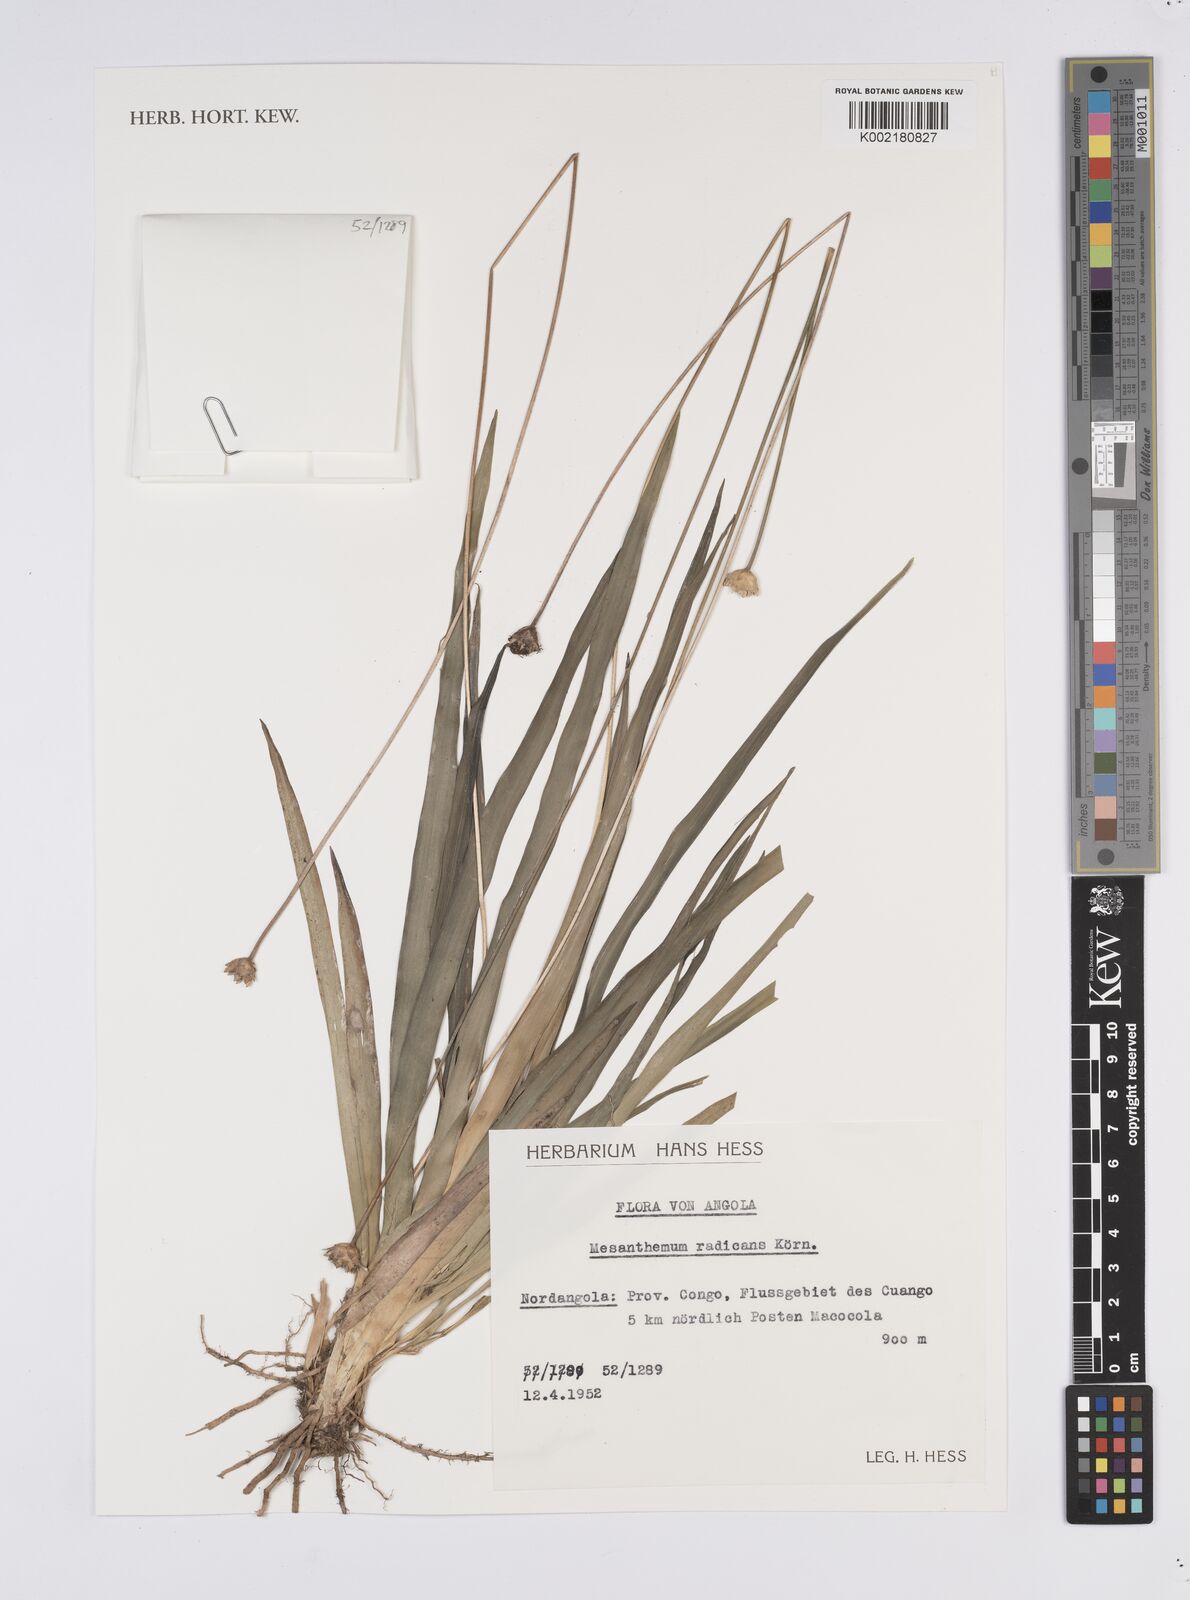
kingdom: Plantae
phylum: Tracheophyta
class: Liliopsida
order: Poales
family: Eriocaulaceae
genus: Mesanthemum
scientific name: Mesanthemum radicans
